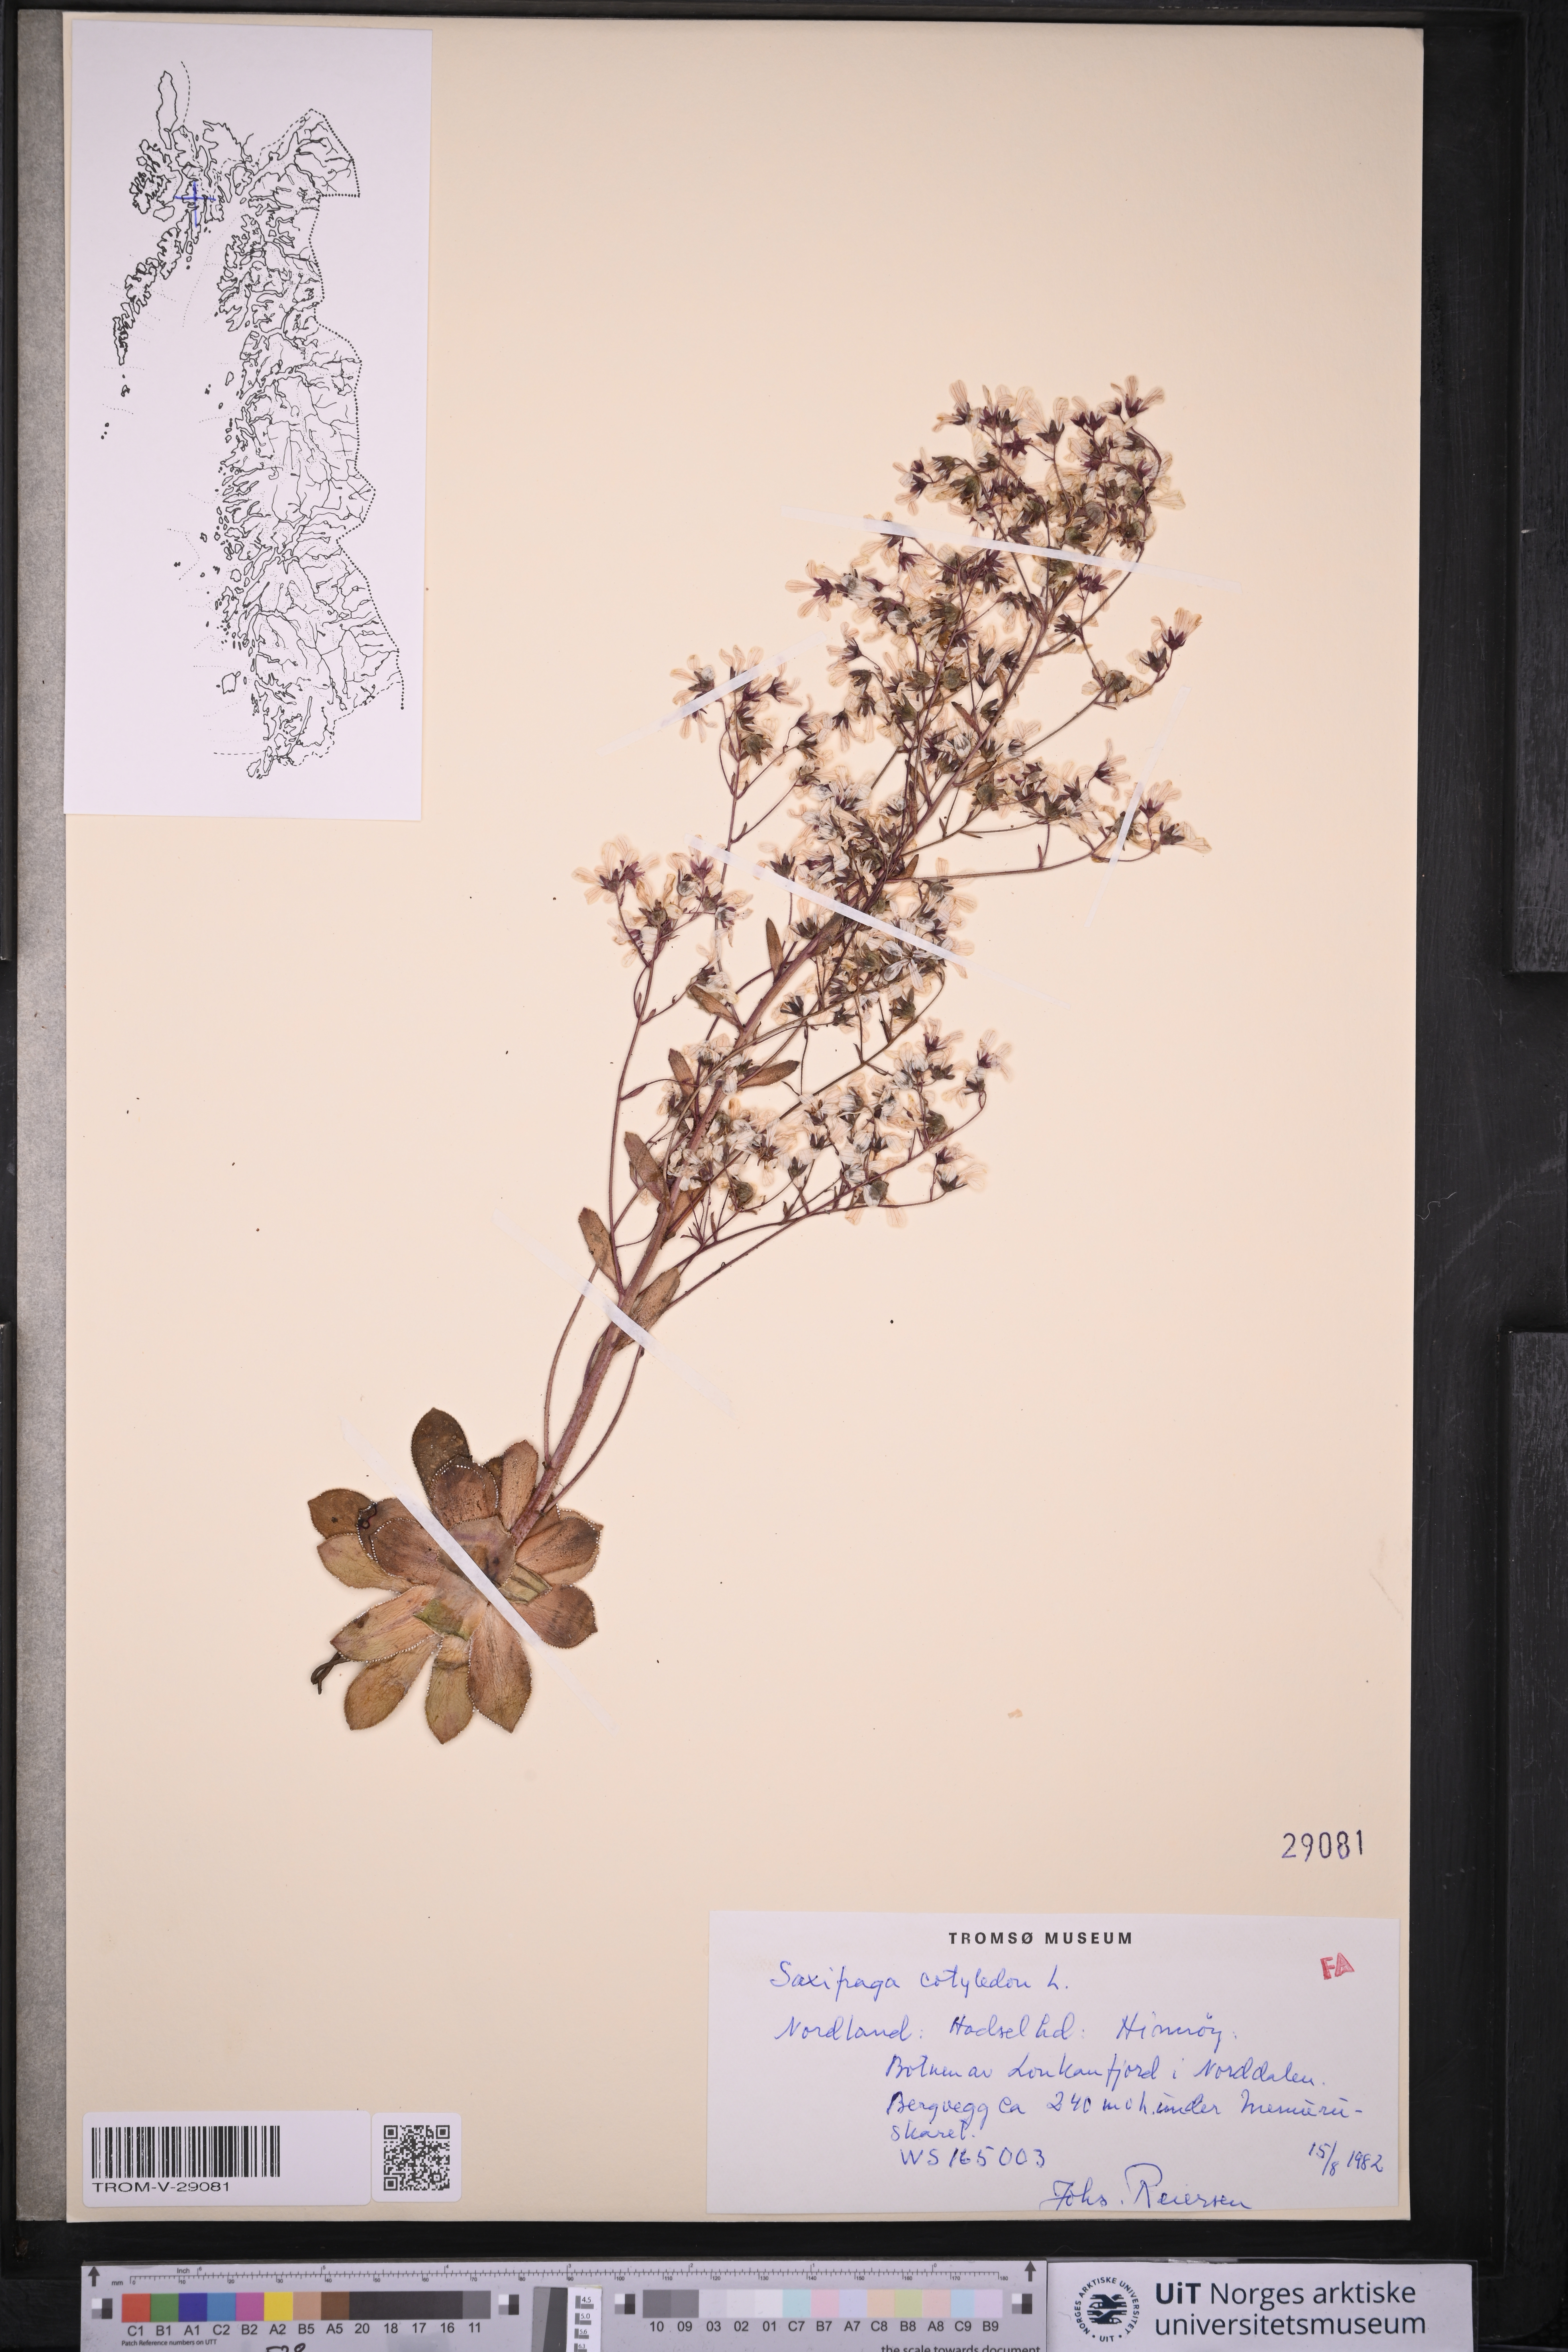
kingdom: Plantae
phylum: Tracheophyta
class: Magnoliopsida
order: Saxifragales
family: Saxifragaceae
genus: Saxifraga
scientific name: Saxifraga cotyledon
